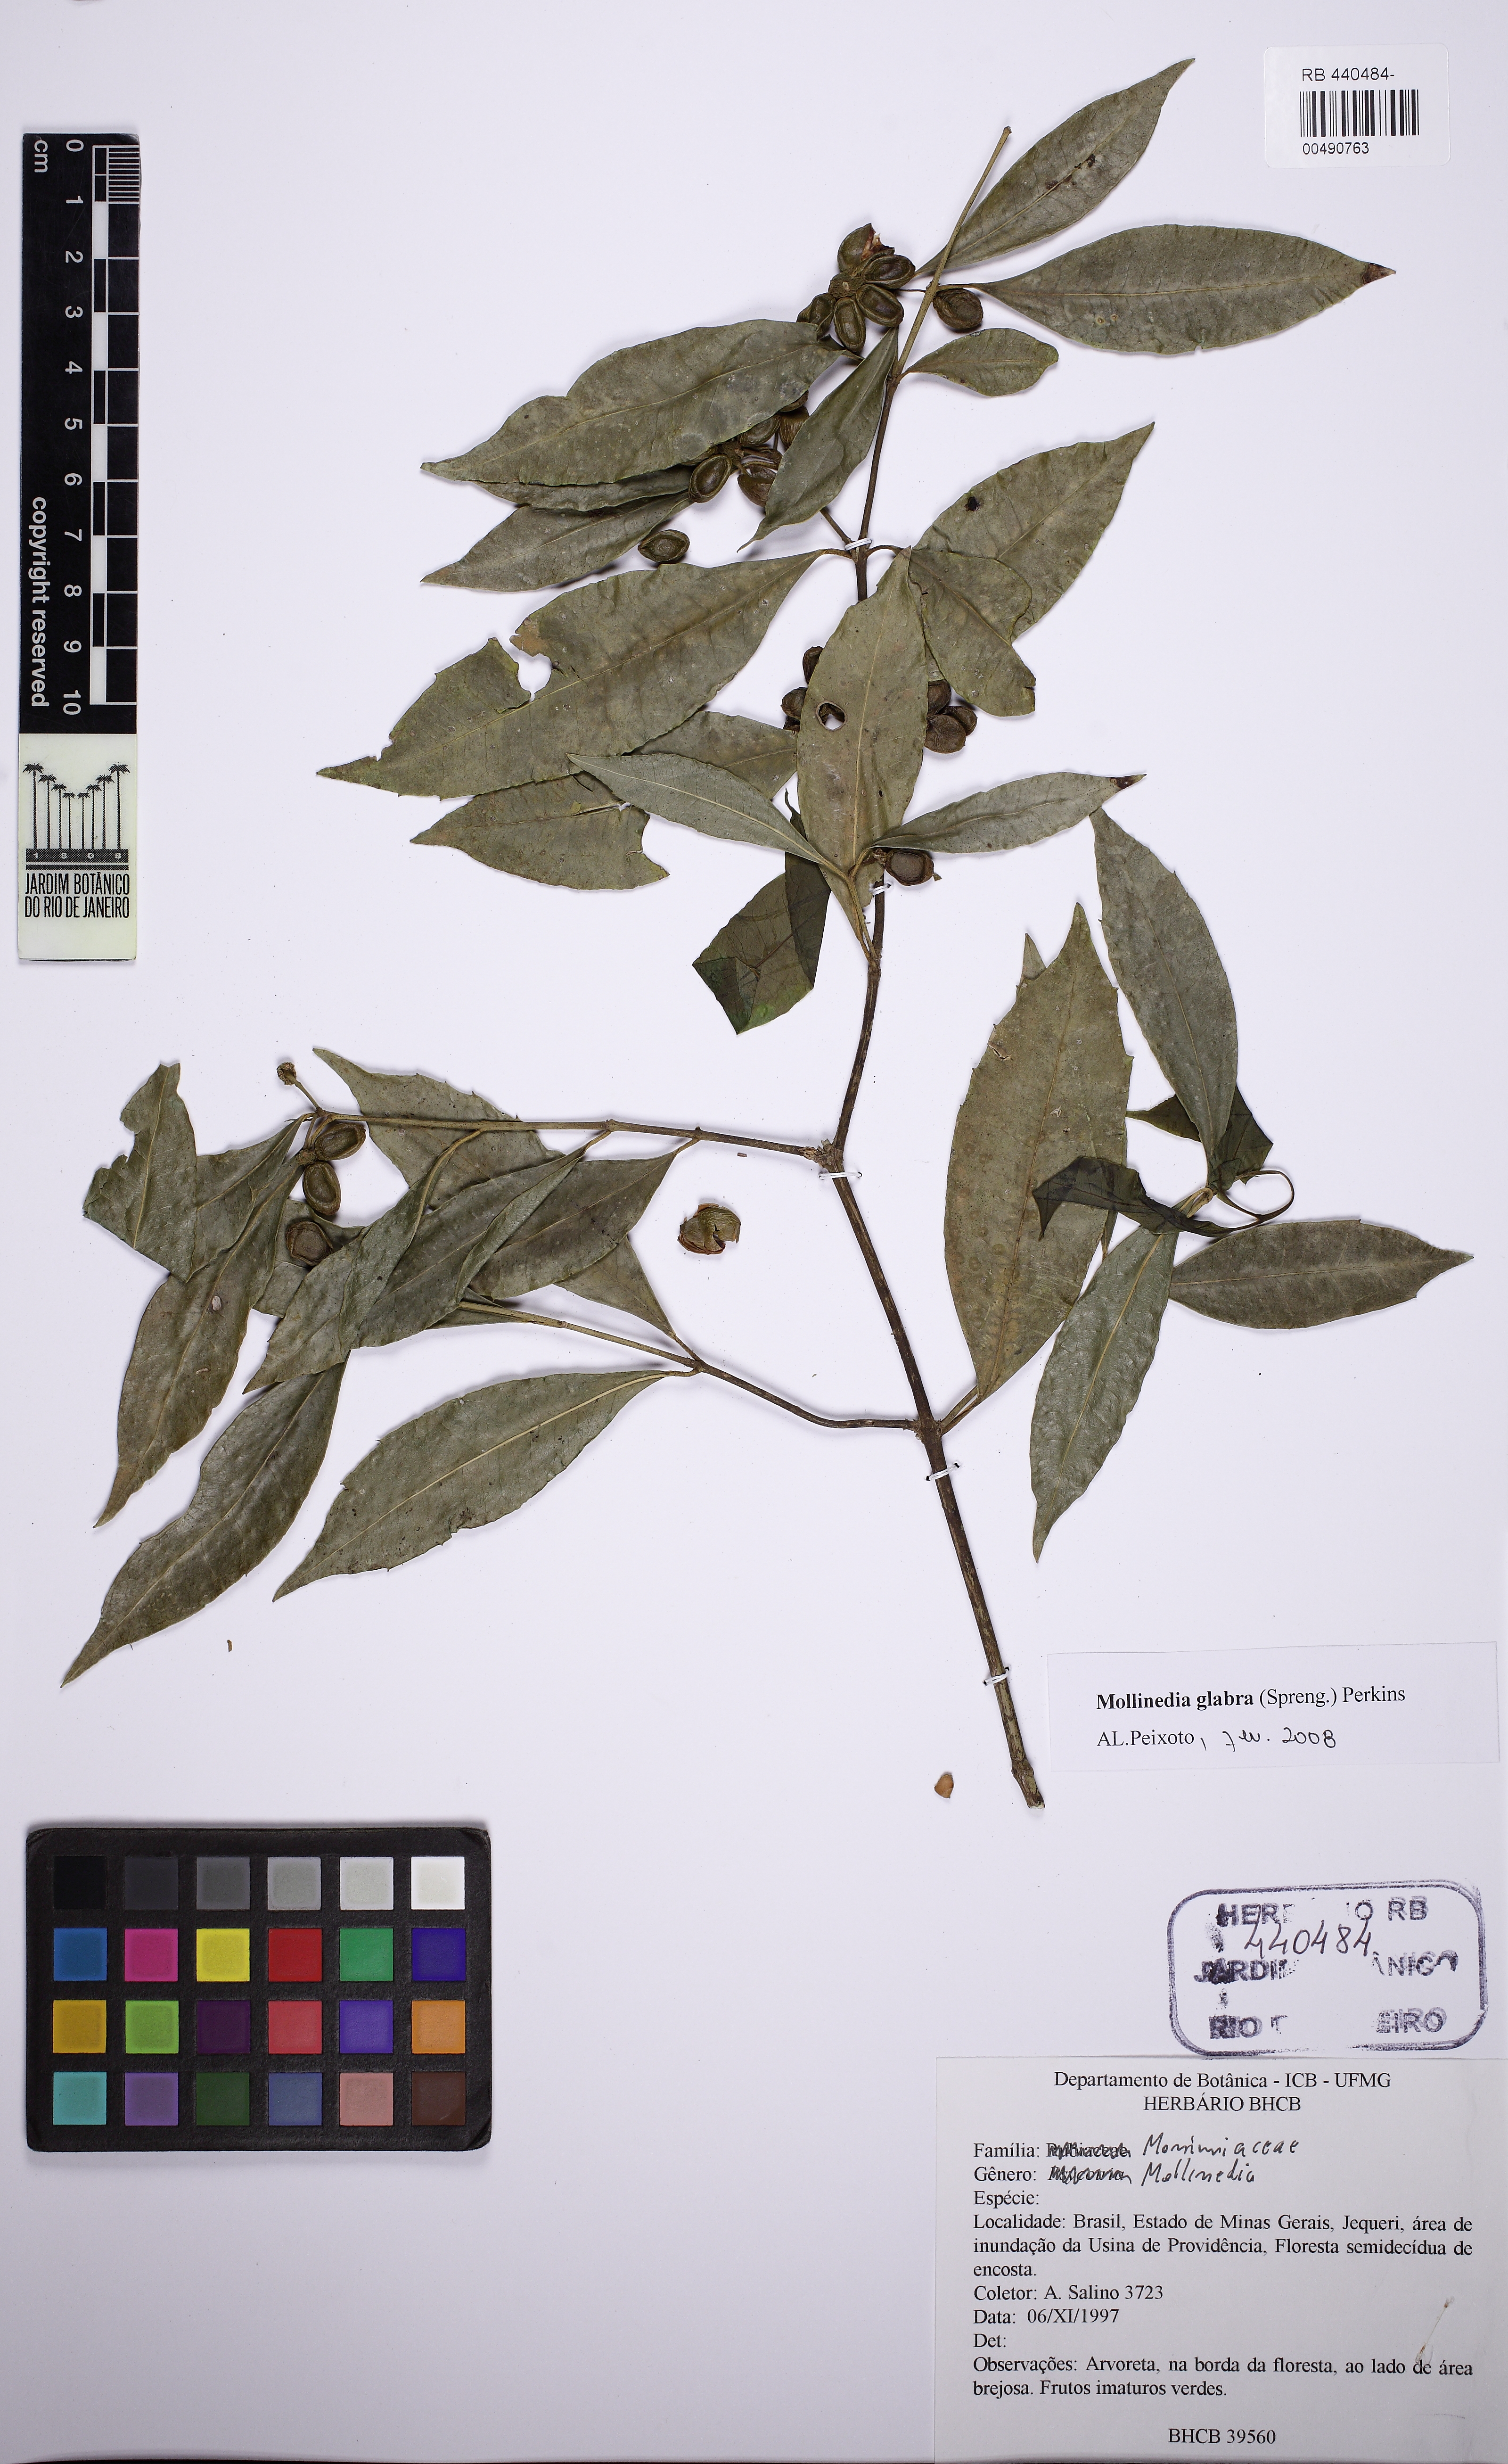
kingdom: Plantae
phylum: Tracheophyta
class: Magnoliopsida
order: Laurales
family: Monimiaceae
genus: Mollinedia
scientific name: Mollinedia glabra
